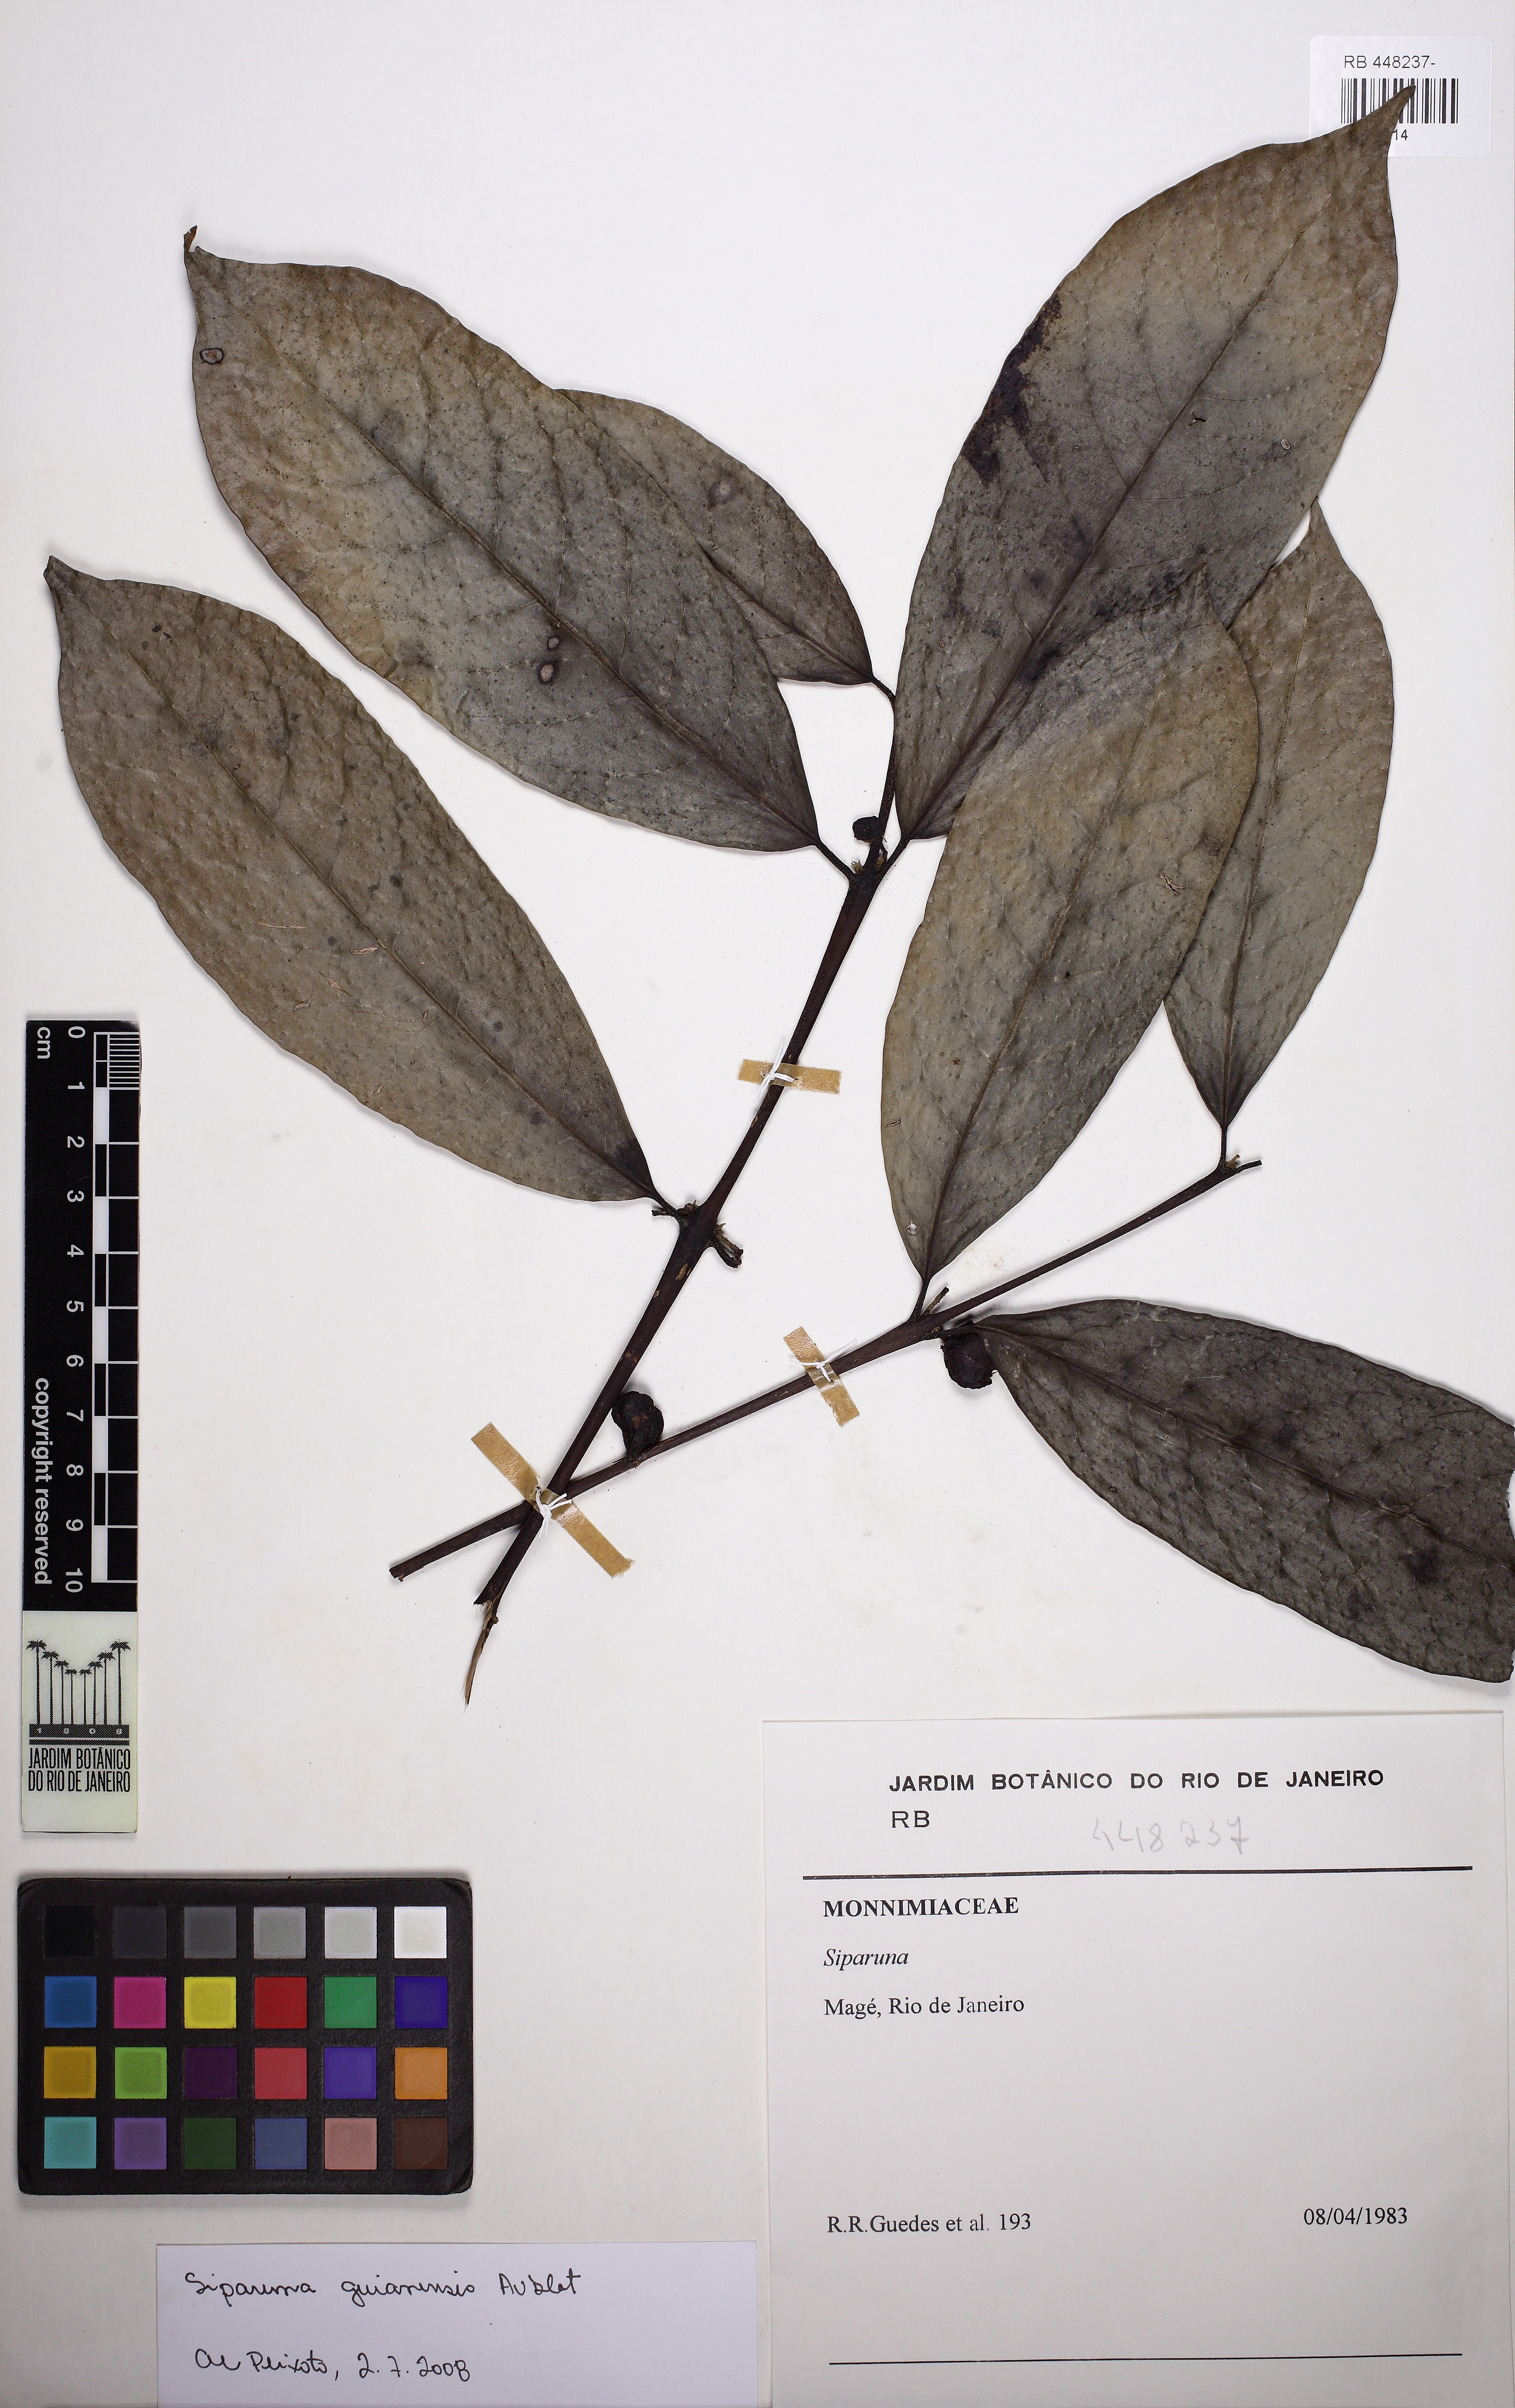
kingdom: Plantae
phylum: Tracheophyta
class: Magnoliopsida
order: Laurales
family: Siparunaceae
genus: Siparuna
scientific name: Siparuna guianensis
